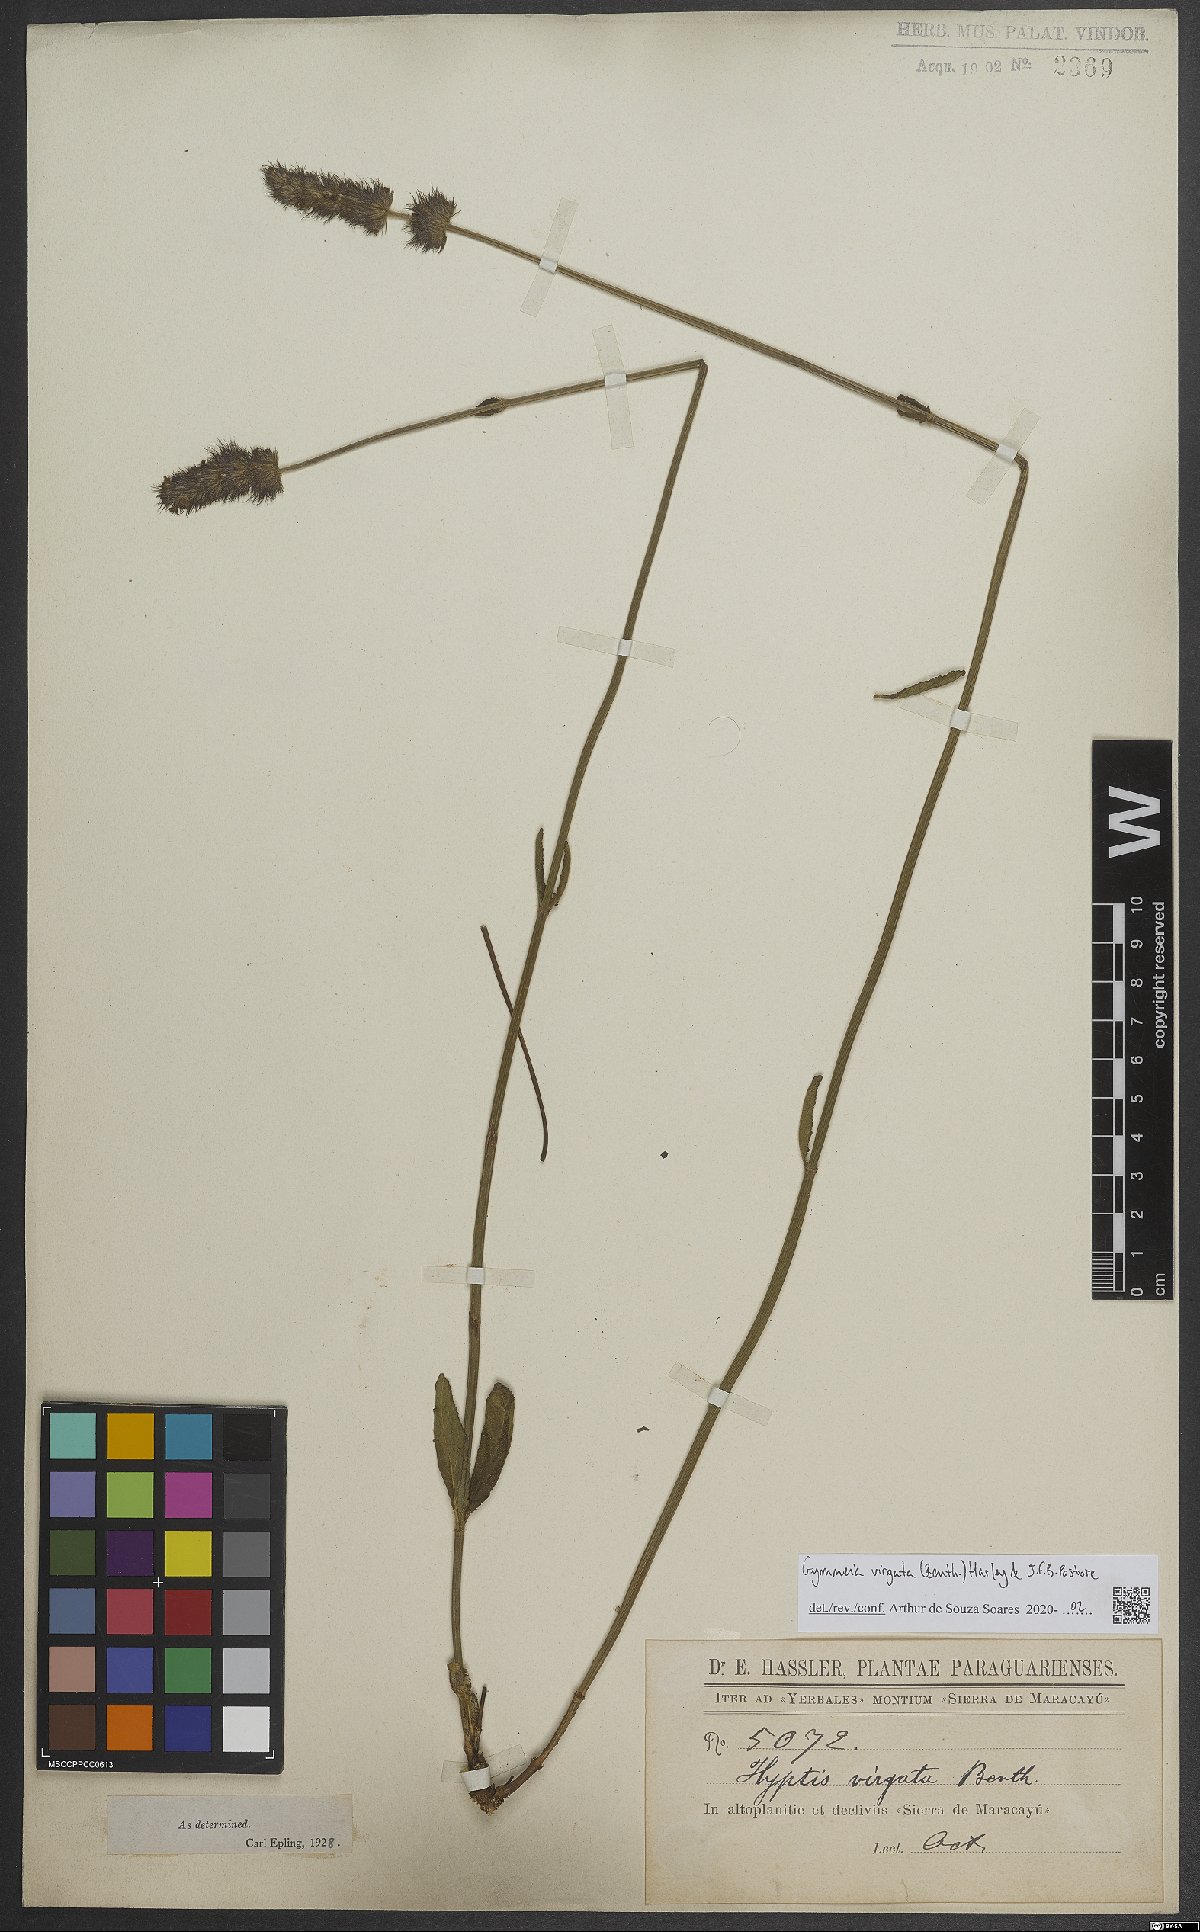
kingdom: Plantae
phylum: Tracheophyta
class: Magnoliopsida
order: Lamiales
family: Lamiaceae
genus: Gymneia
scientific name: Gymneia virgata
